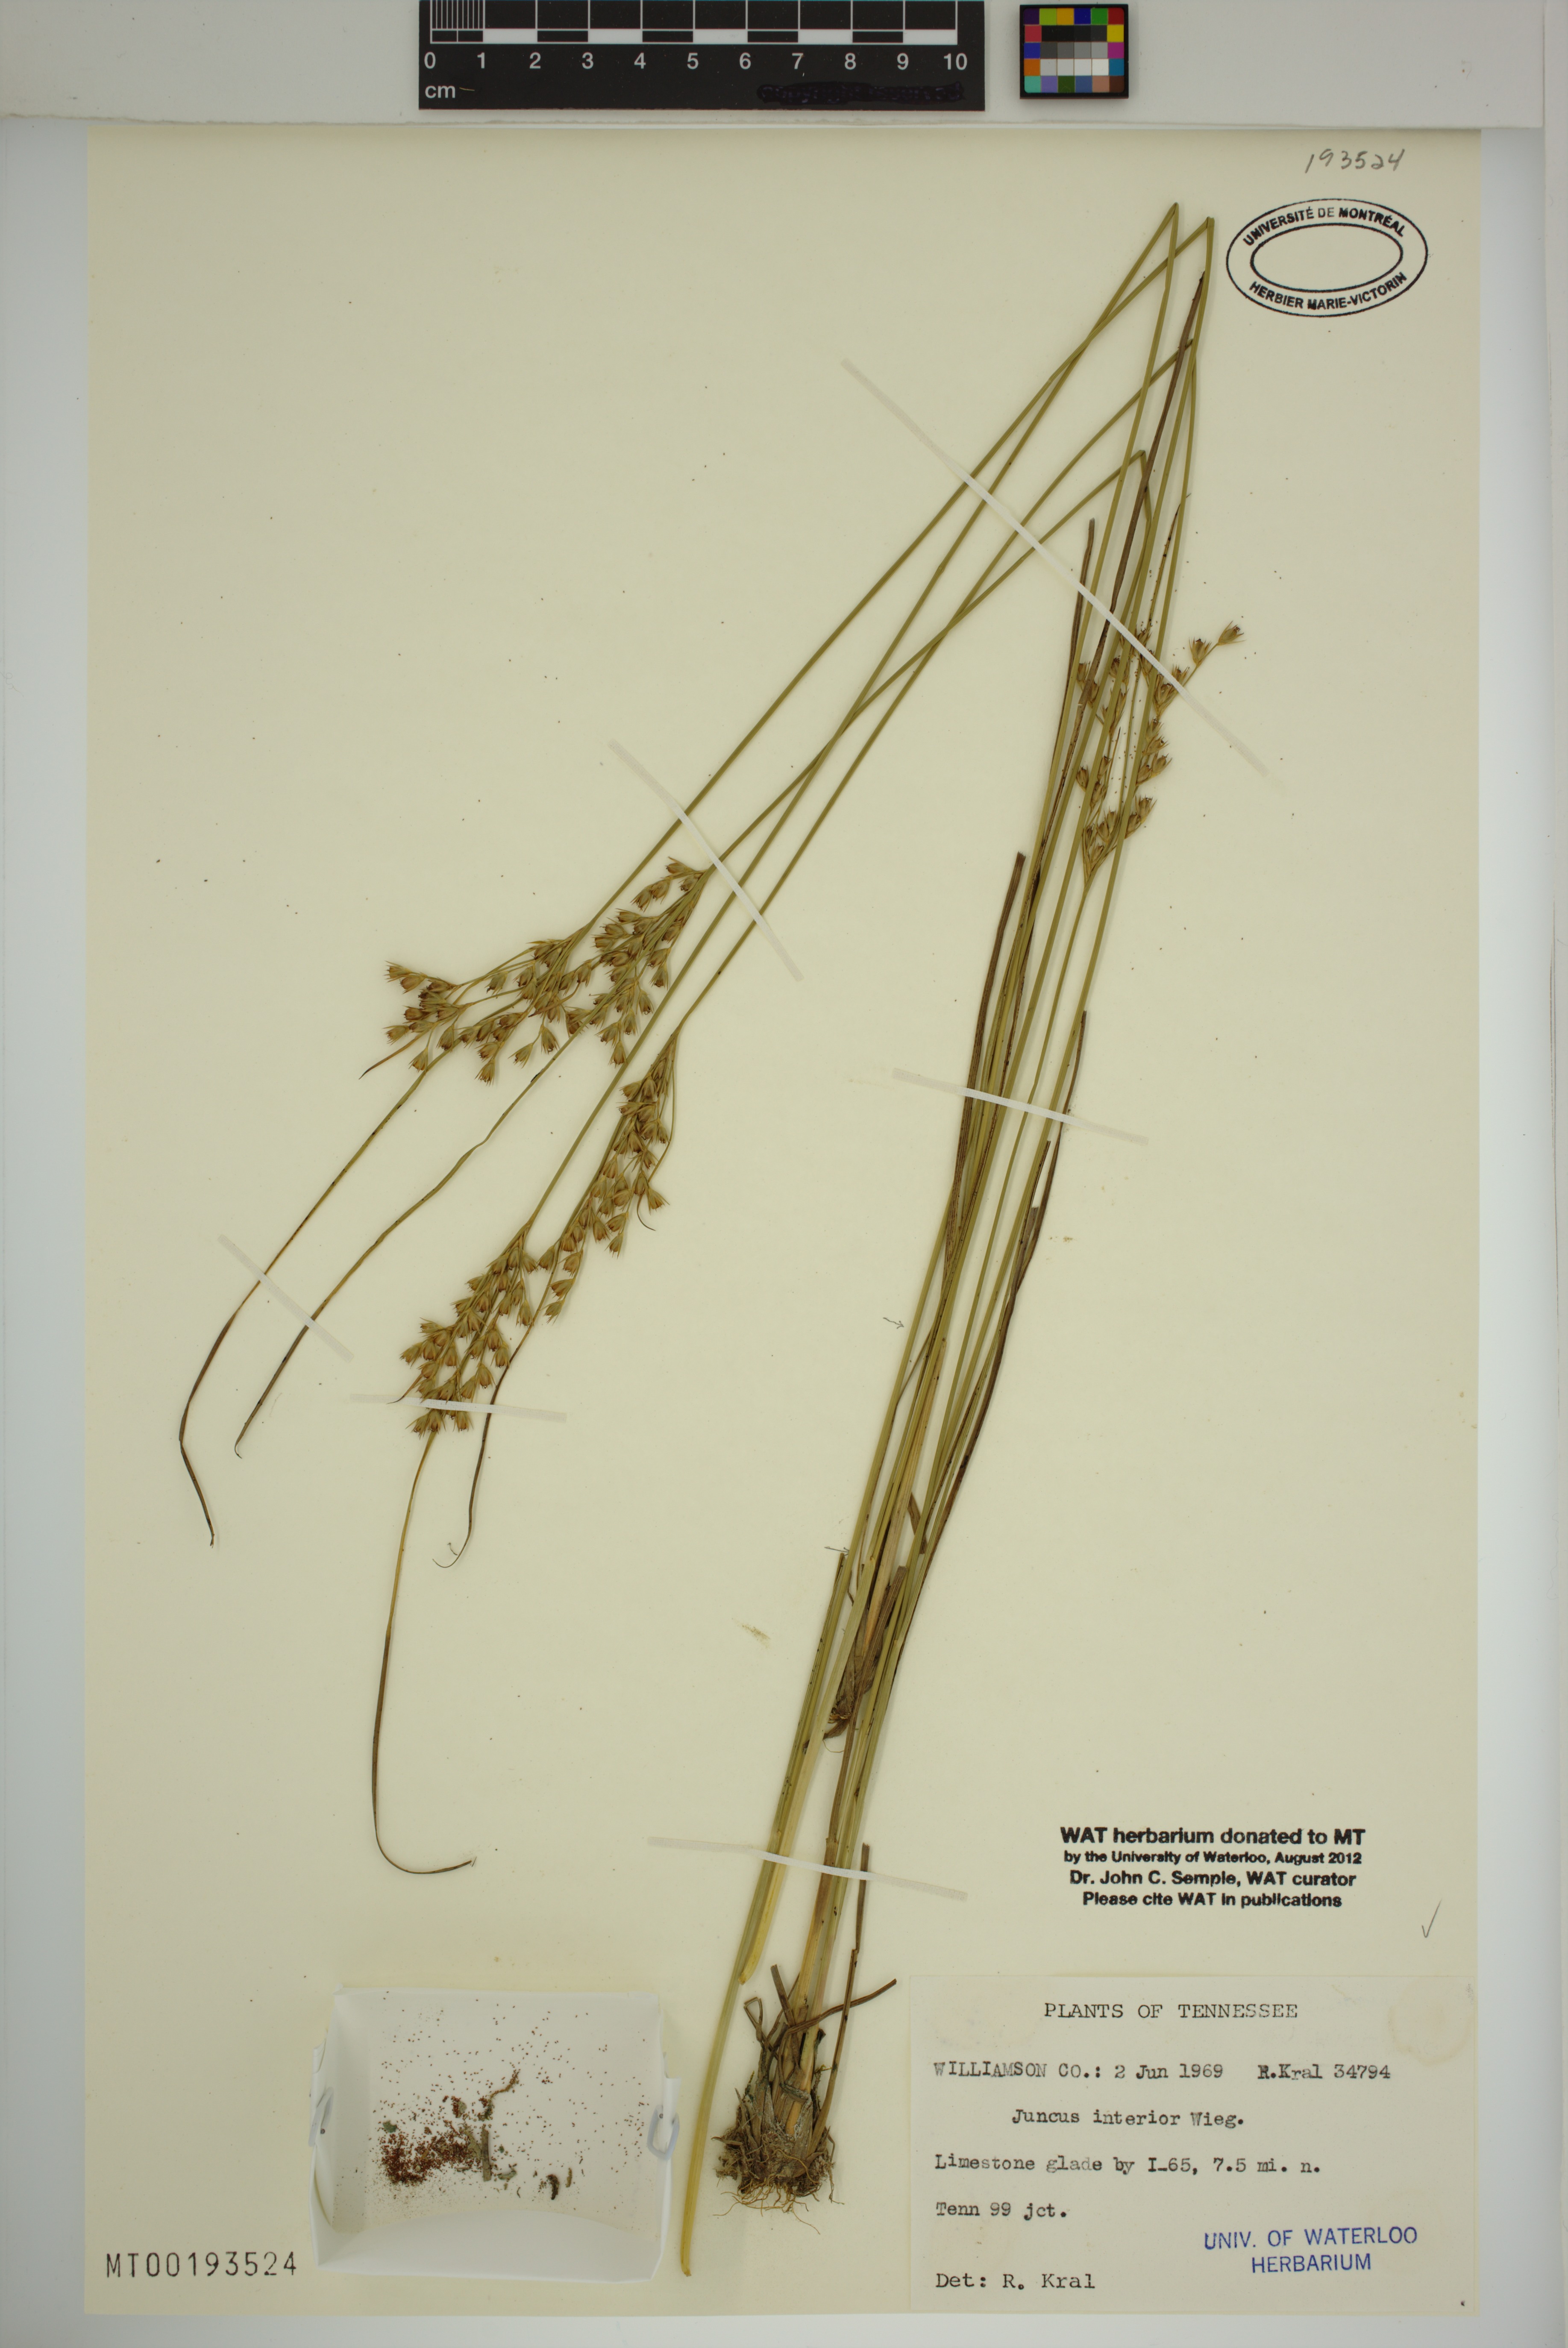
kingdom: Plantae
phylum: Tracheophyta
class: Liliopsida
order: Poales
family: Juncaceae
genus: Juncus
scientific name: Juncus interior
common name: Interior rush
